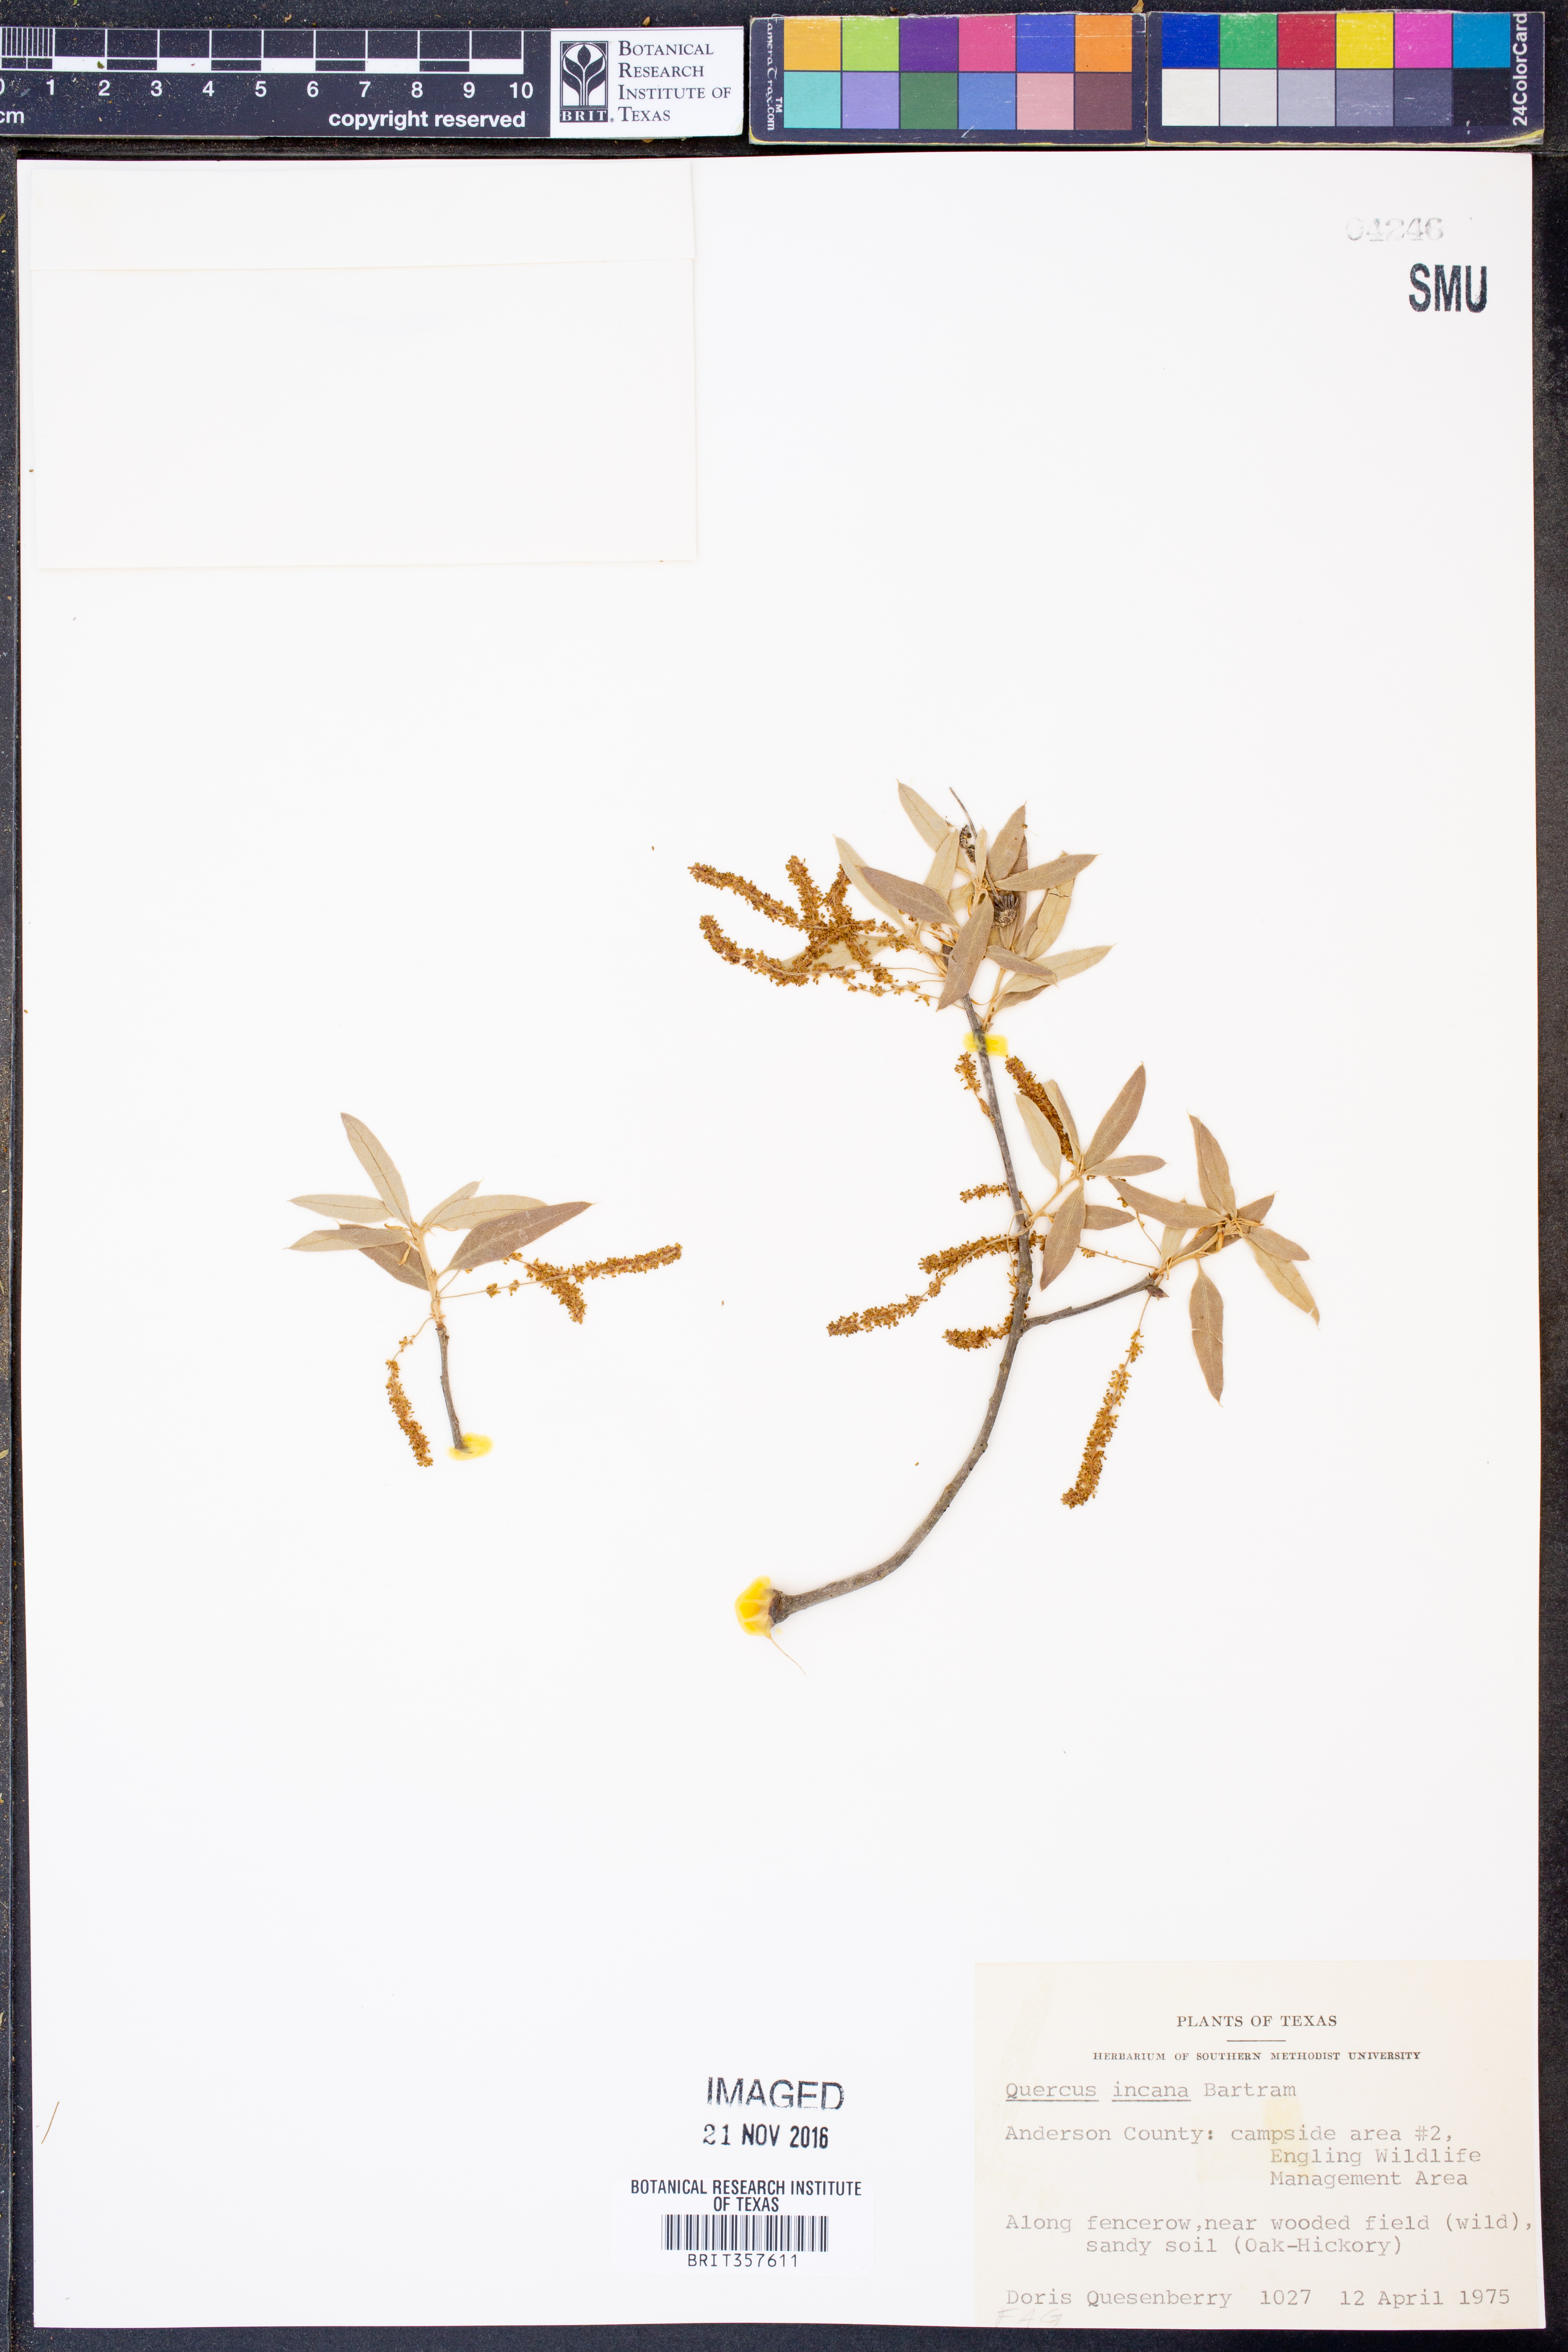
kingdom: Plantae
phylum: Tracheophyta
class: Magnoliopsida
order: Fagales
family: Fagaceae
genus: Quercus
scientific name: Quercus incana
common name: Bluejack oak
